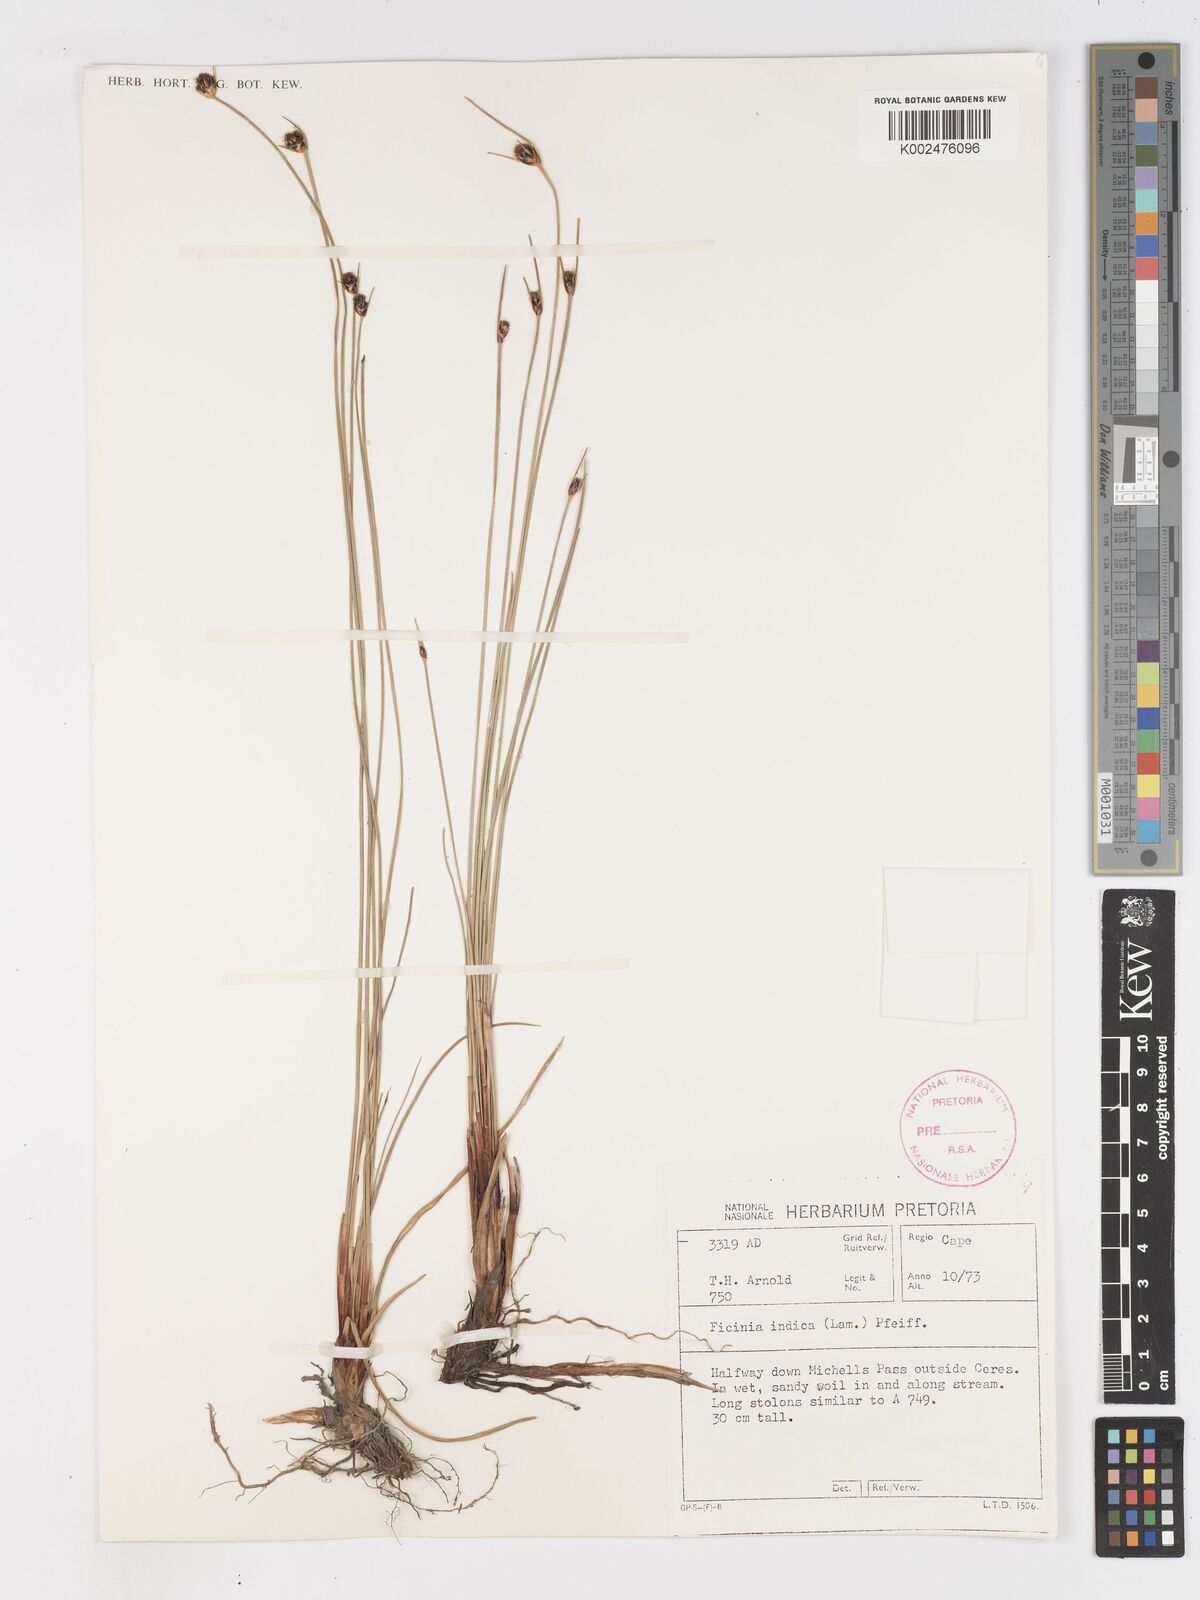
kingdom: Plantae
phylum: Tracheophyta
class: Liliopsida
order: Poales
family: Cyperaceae
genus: Ficinia
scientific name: Ficinia indica
